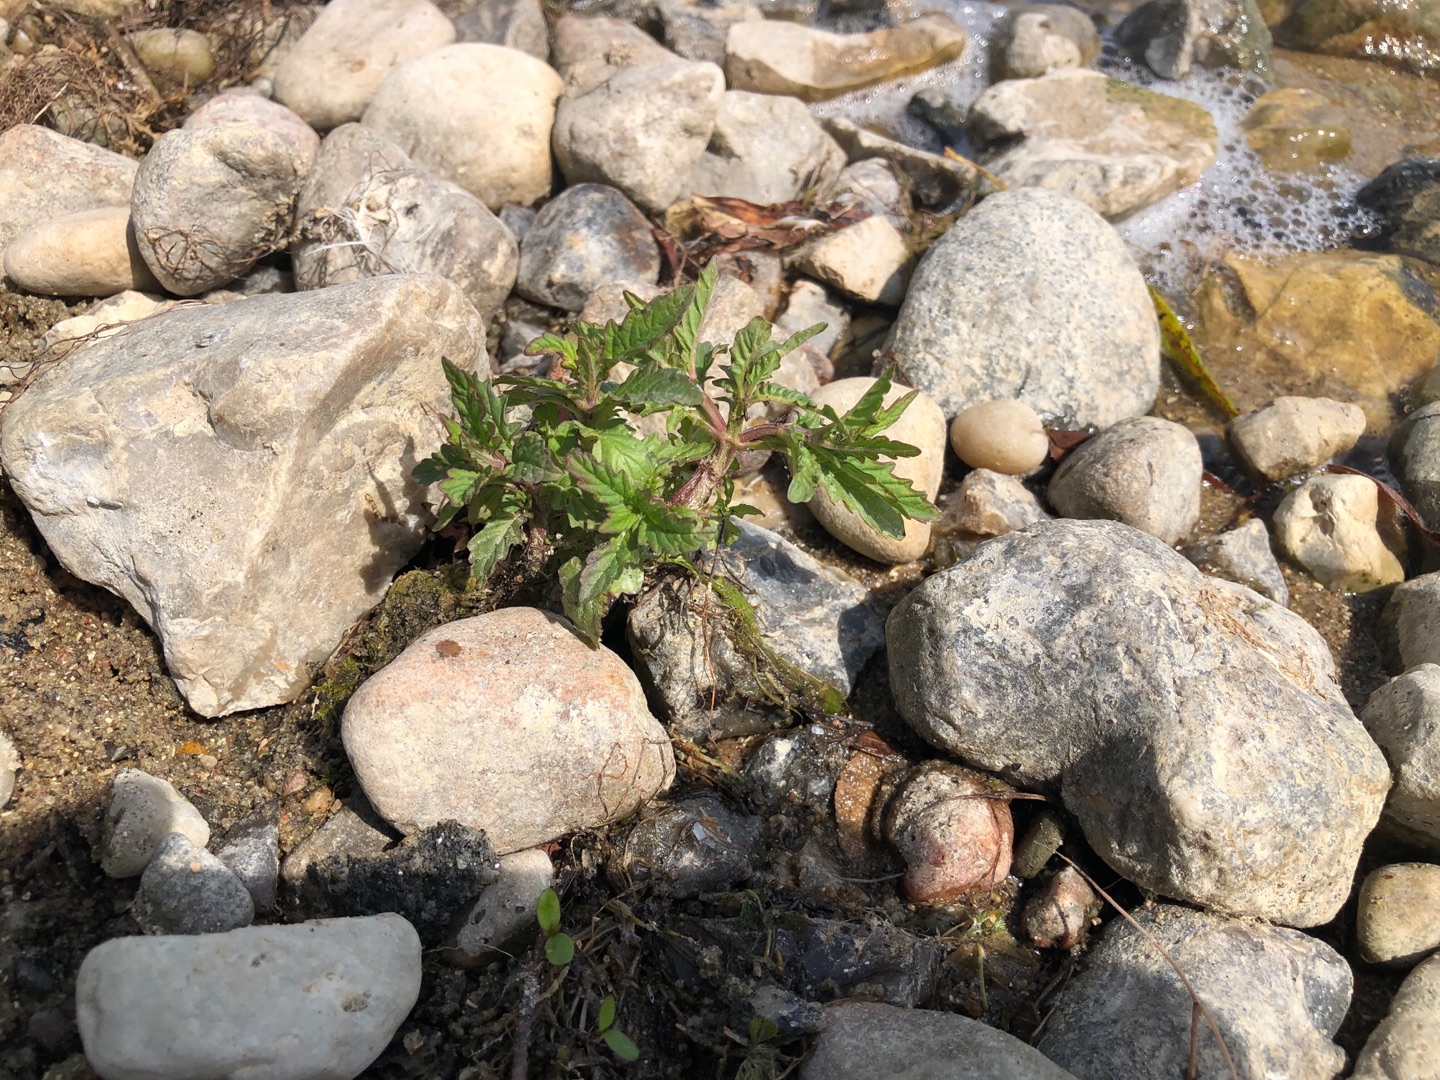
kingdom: Plantae
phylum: Tracheophyta
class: Magnoliopsida
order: Lamiales
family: Lamiaceae
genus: Lycopus
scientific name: Lycopus europaeus
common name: Sværtevæld
